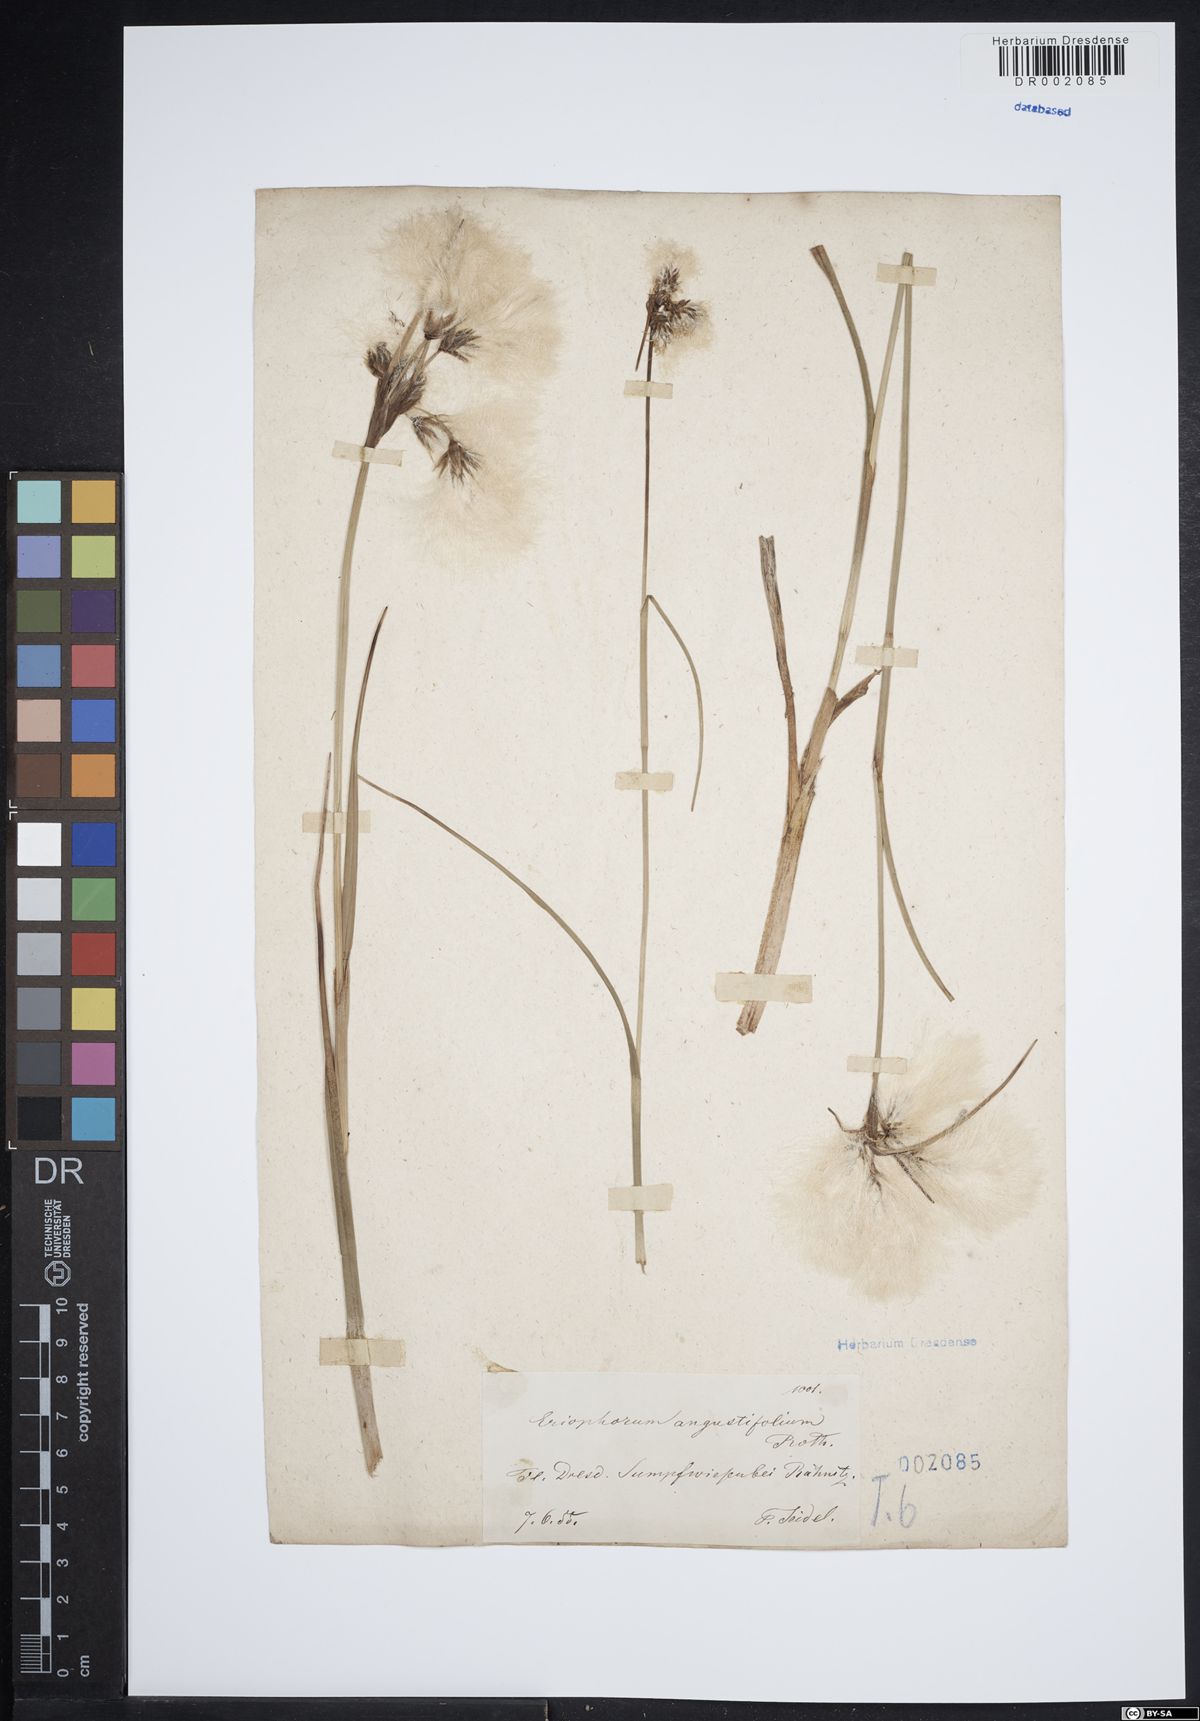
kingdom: Plantae
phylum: Tracheophyta
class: Liliopsida
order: Poales
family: Cyperaceae
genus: Eriophorum
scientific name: Eriophorum angustifolium
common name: Common cottongrass
